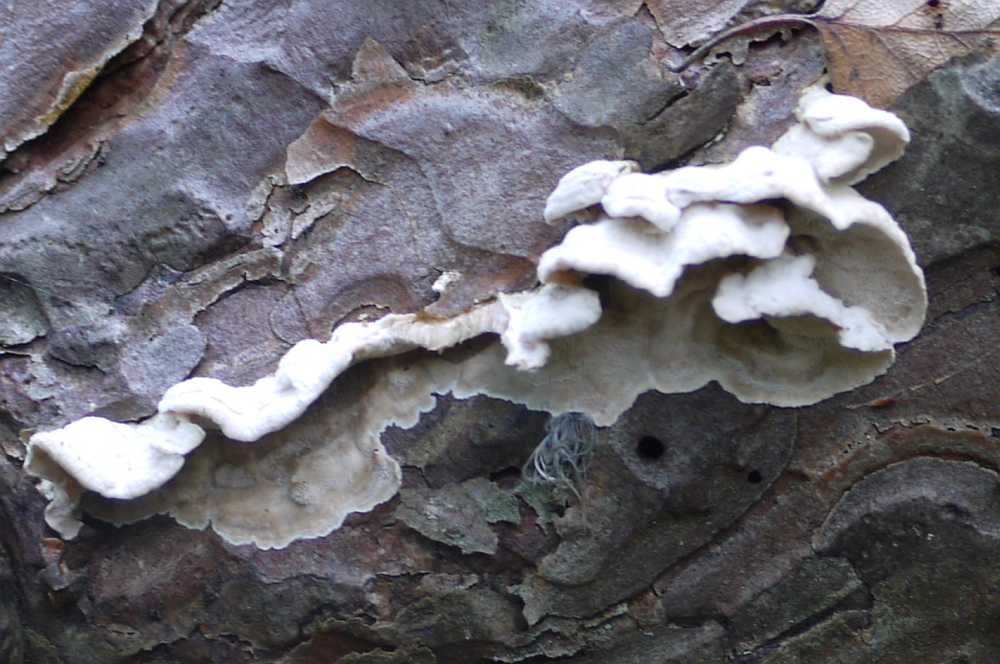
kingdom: Fungi
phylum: Basidiomycota
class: Agaricomycetes
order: Polyporales
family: Incrustoporiaceae
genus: Skeletocutis
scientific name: Skeletocutis carneogrisea
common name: rødgrå krystalporesvamp
